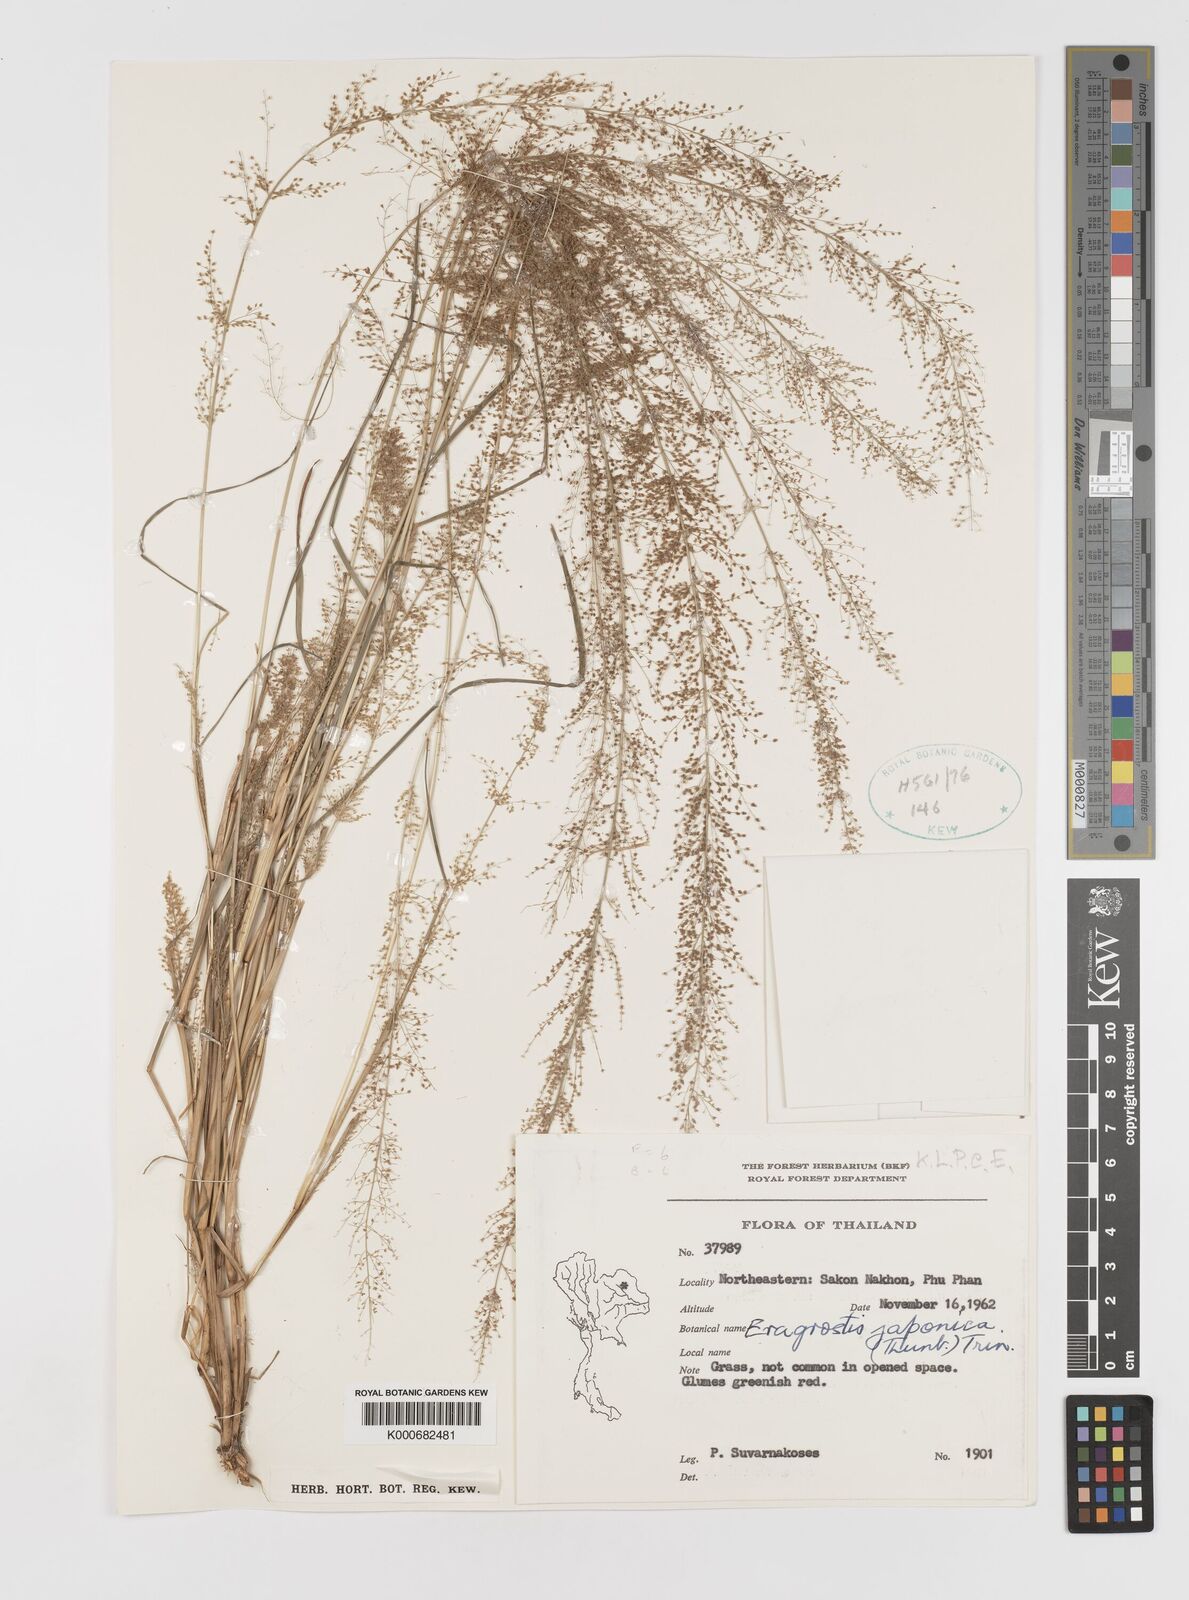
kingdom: Plantae
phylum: Tracheophyta
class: Liliopsida
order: Poales
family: Poaceae
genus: Eragrostis
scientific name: Eragrostis japonica
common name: Pond lovegrass
